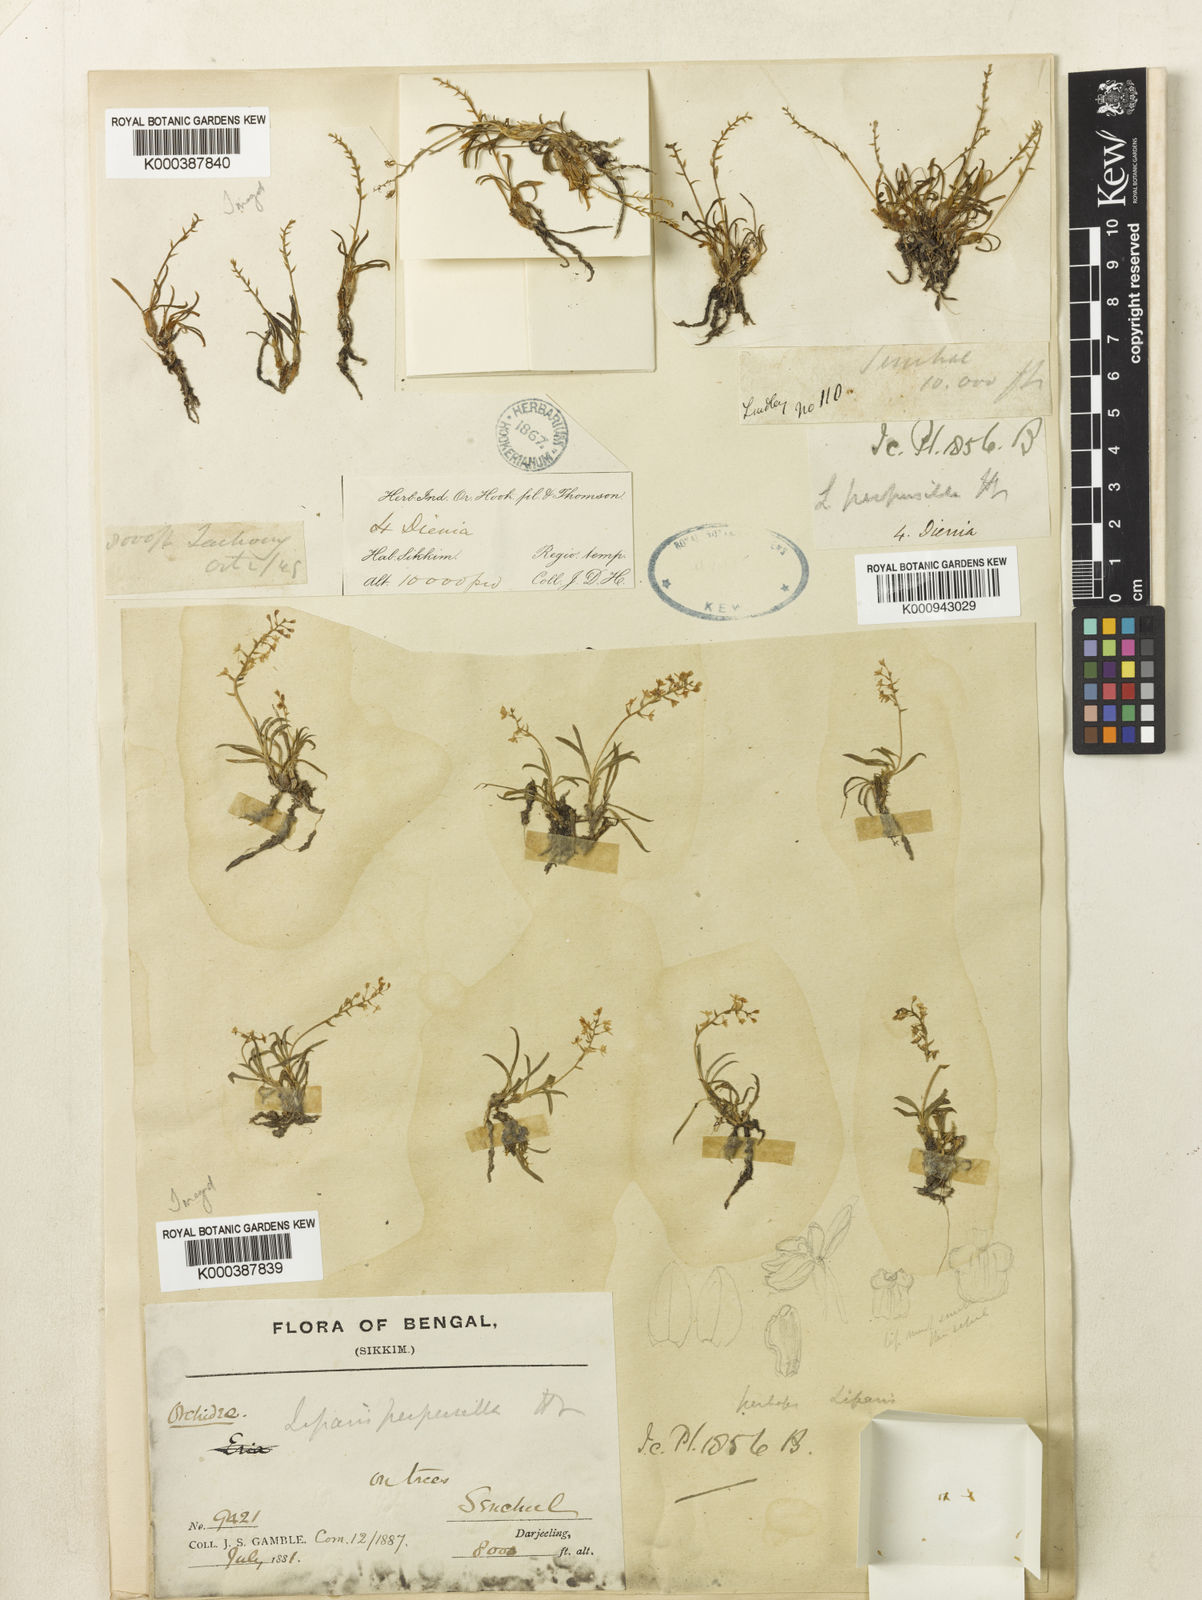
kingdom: Plantae
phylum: Tracheophyta
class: Liliopsida
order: Asparagales
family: Orchidaceae
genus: Liparis
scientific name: Liparis perpusilla
